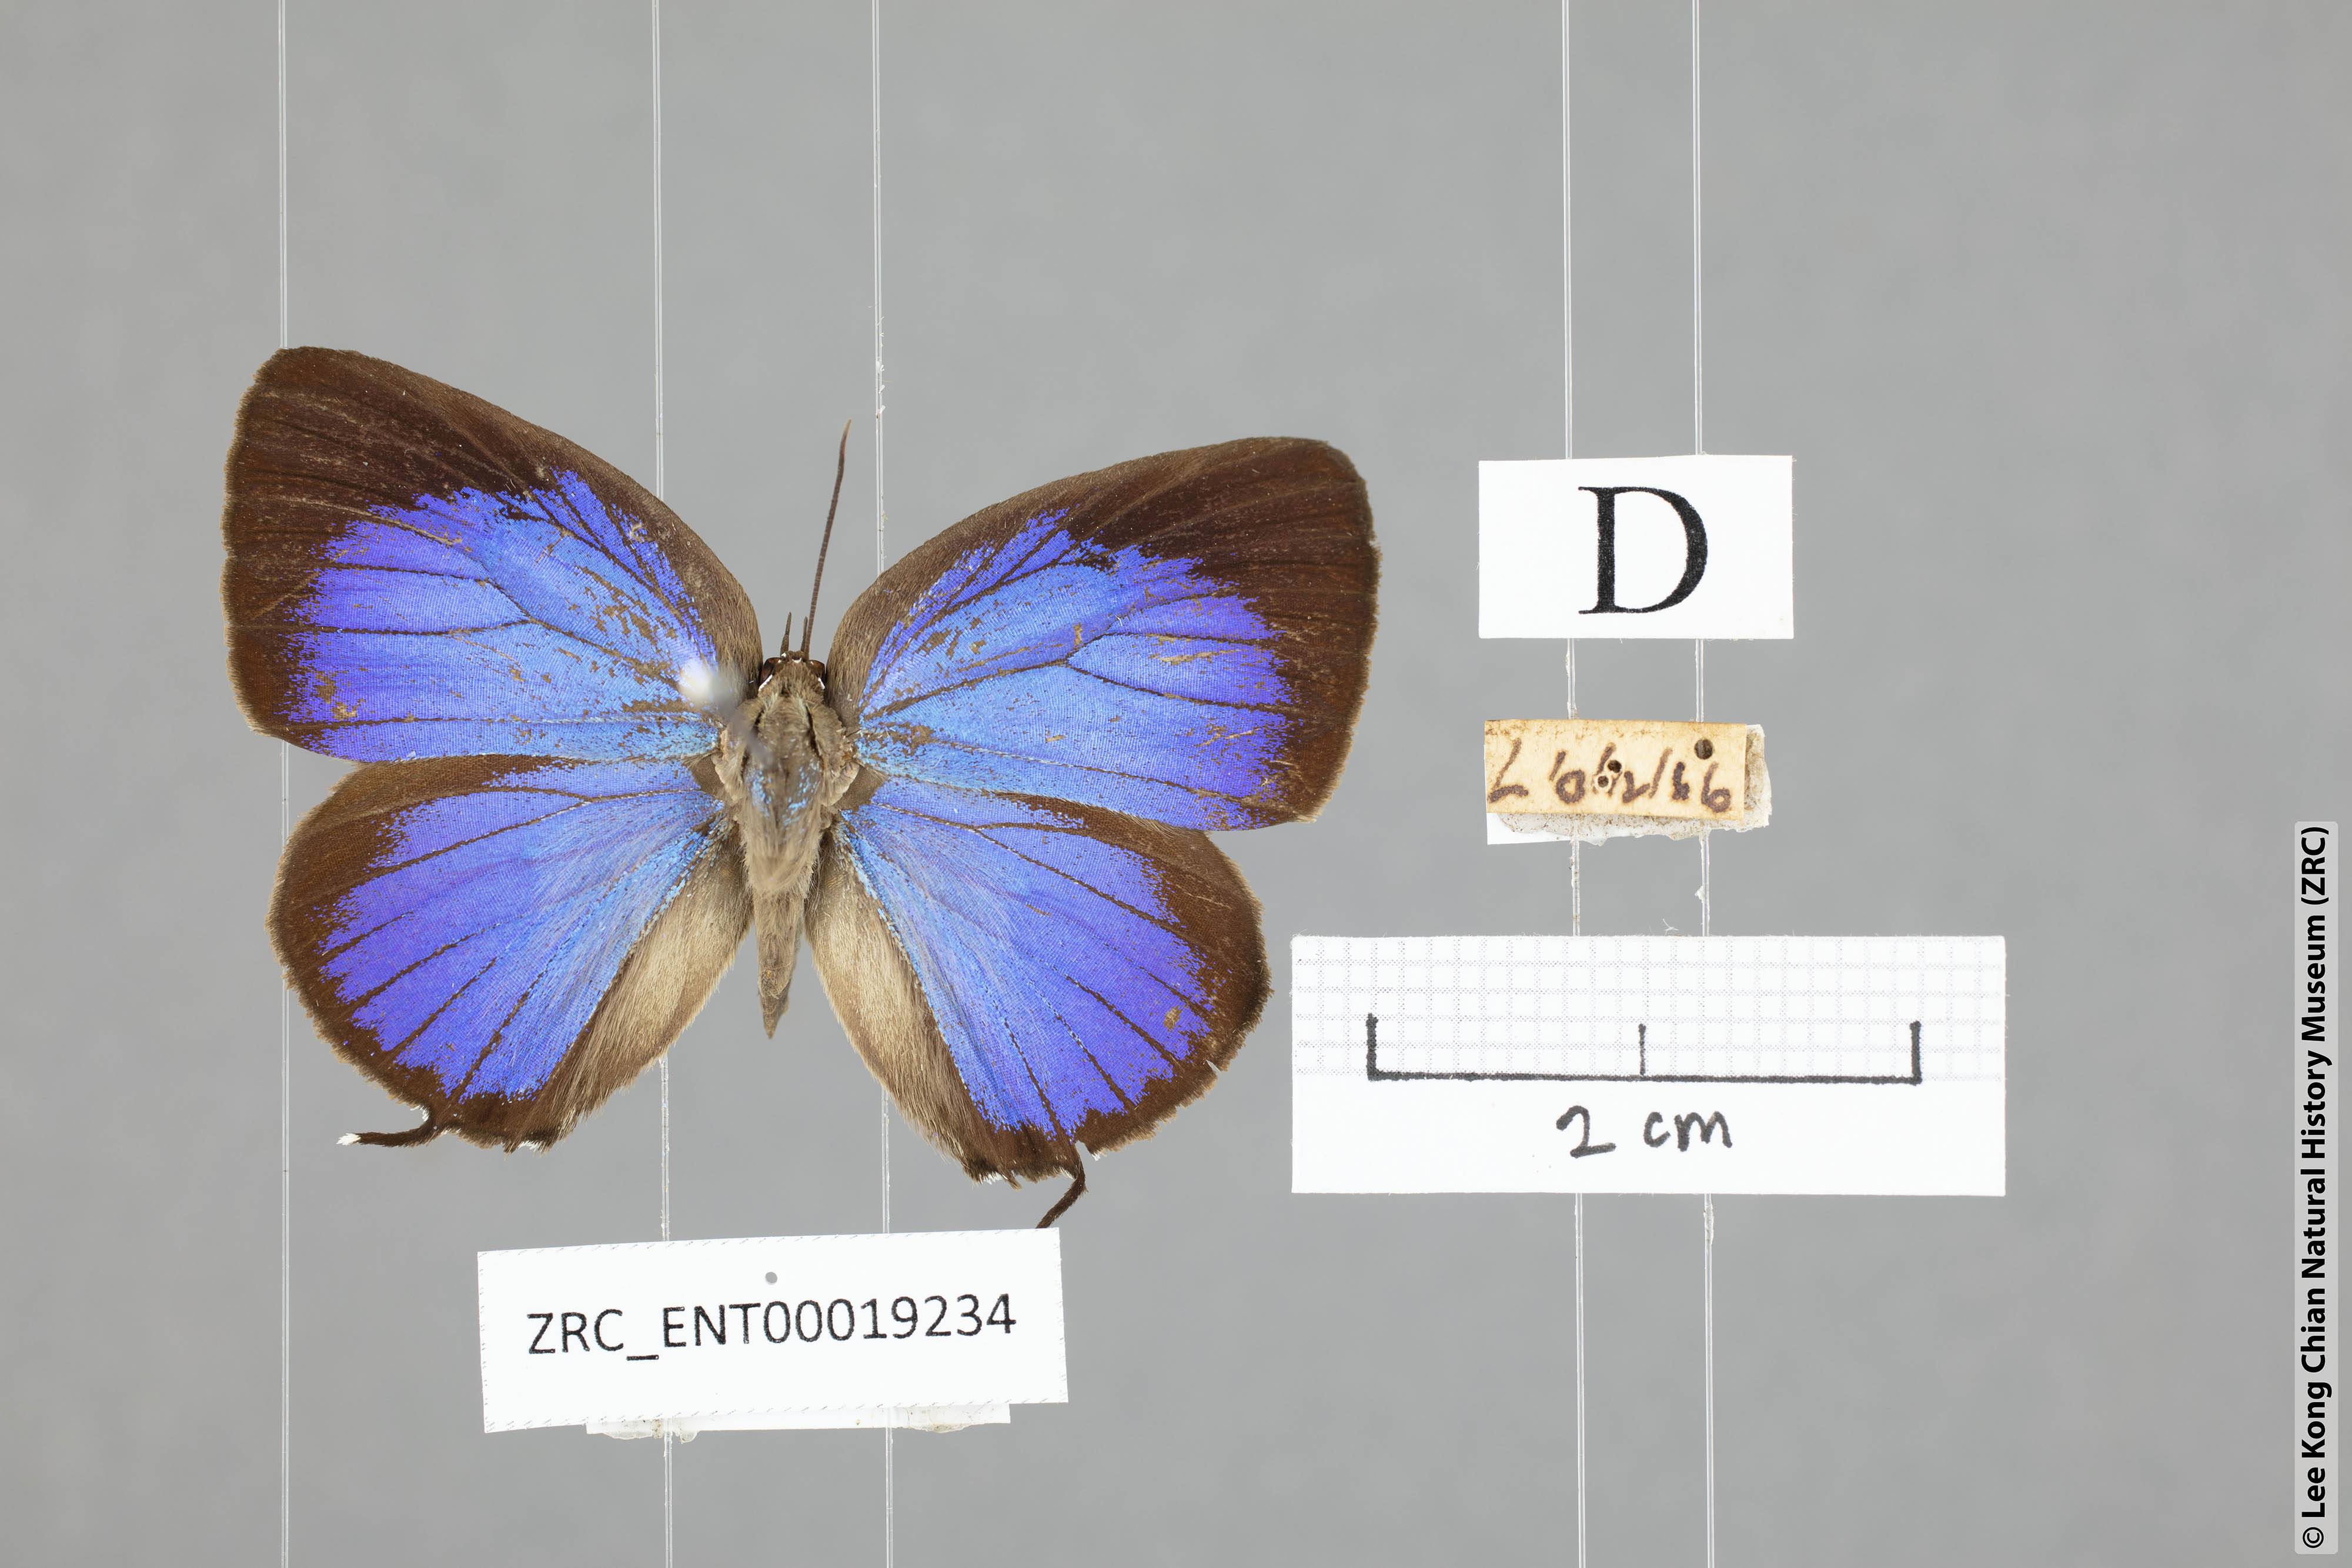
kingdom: Animalia
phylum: Arthropoda
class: Insecta
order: Lepidoptera
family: Lycaenidae
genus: Arhopala
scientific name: Arhopala atosia
